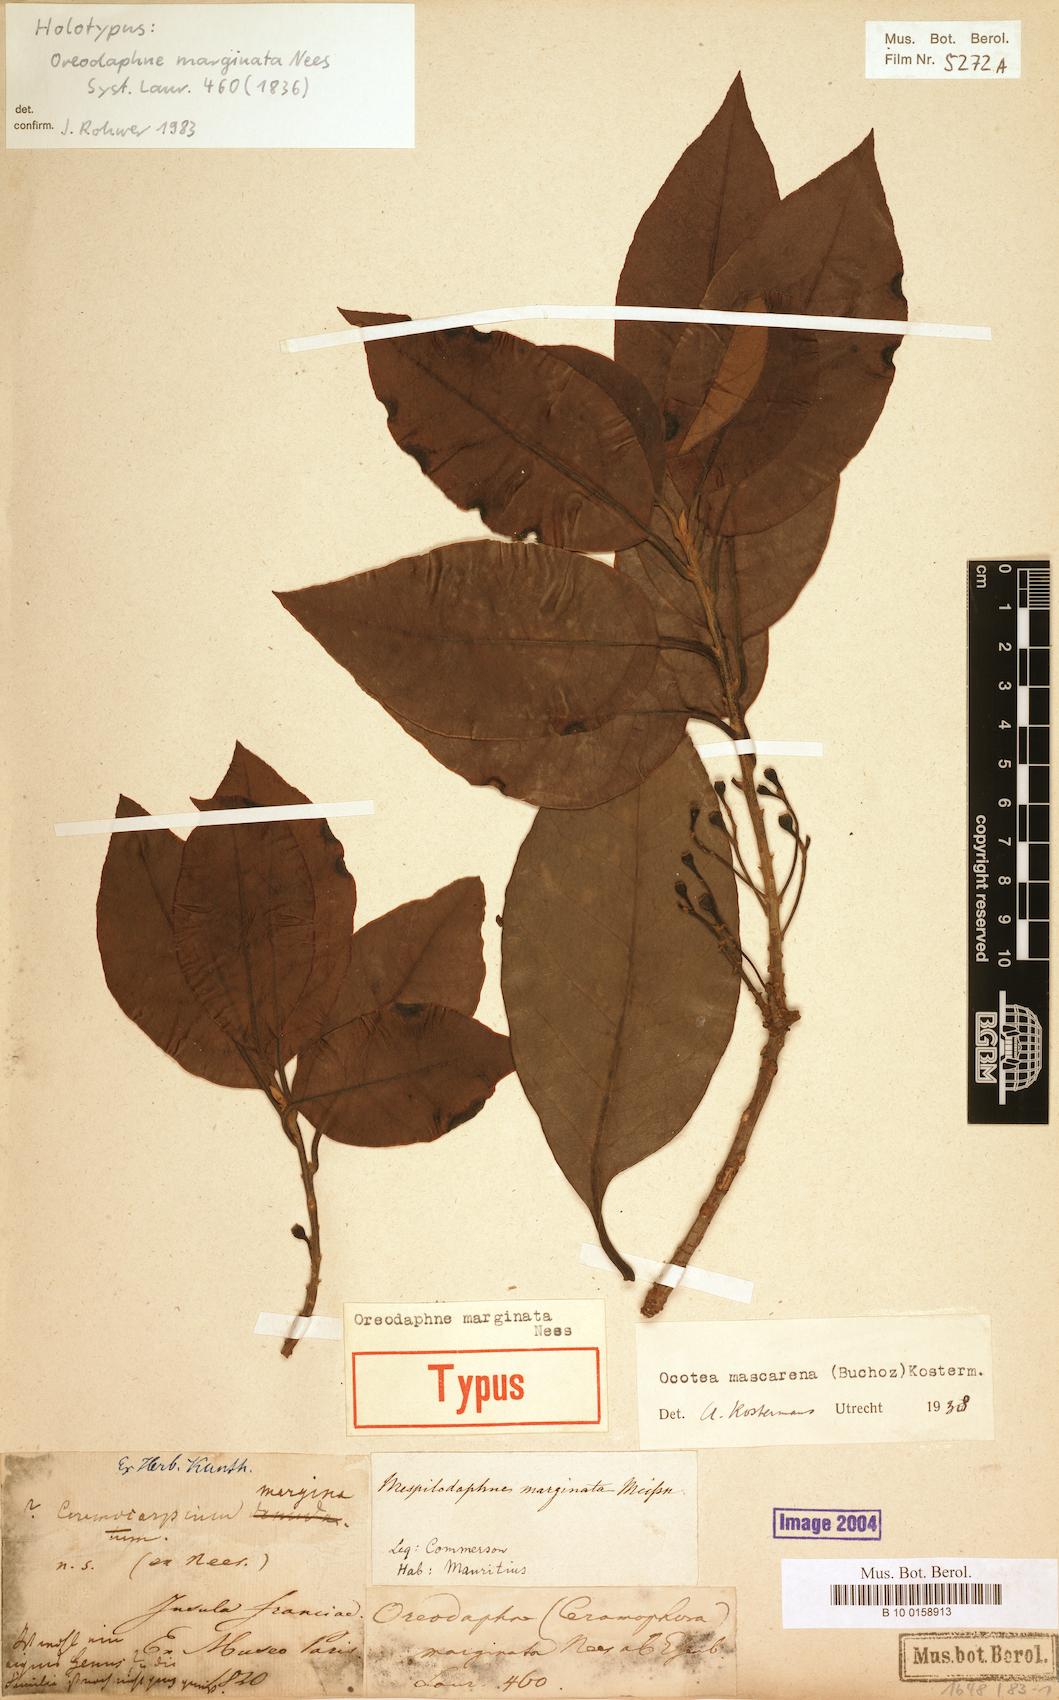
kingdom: Plantae
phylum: Tracheophyta
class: Magnoliopsida
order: Laurales
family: Lauraceae
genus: Mespilodaphne
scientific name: Mespilodaphne cupularis
